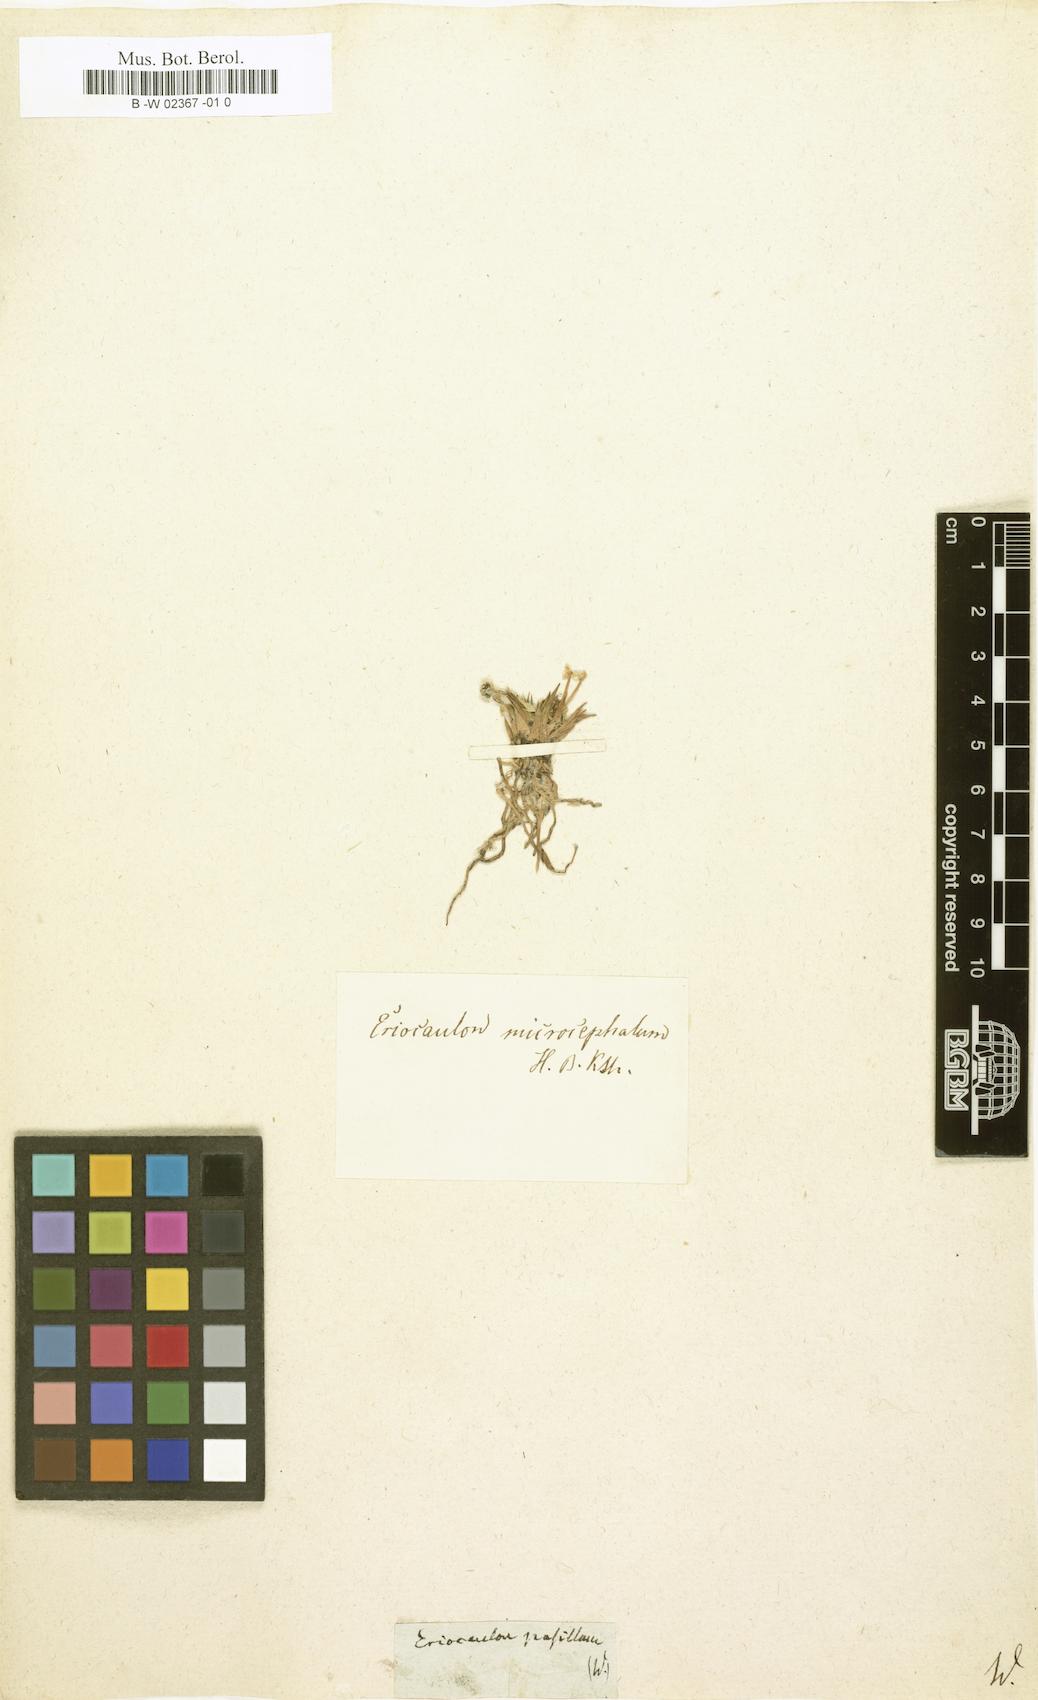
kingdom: Plantae
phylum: Tracheophyta
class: Liliopsida
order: Poales
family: Eriocaulaceae
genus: Eriocaulon
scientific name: Eriocaulon pusillum
